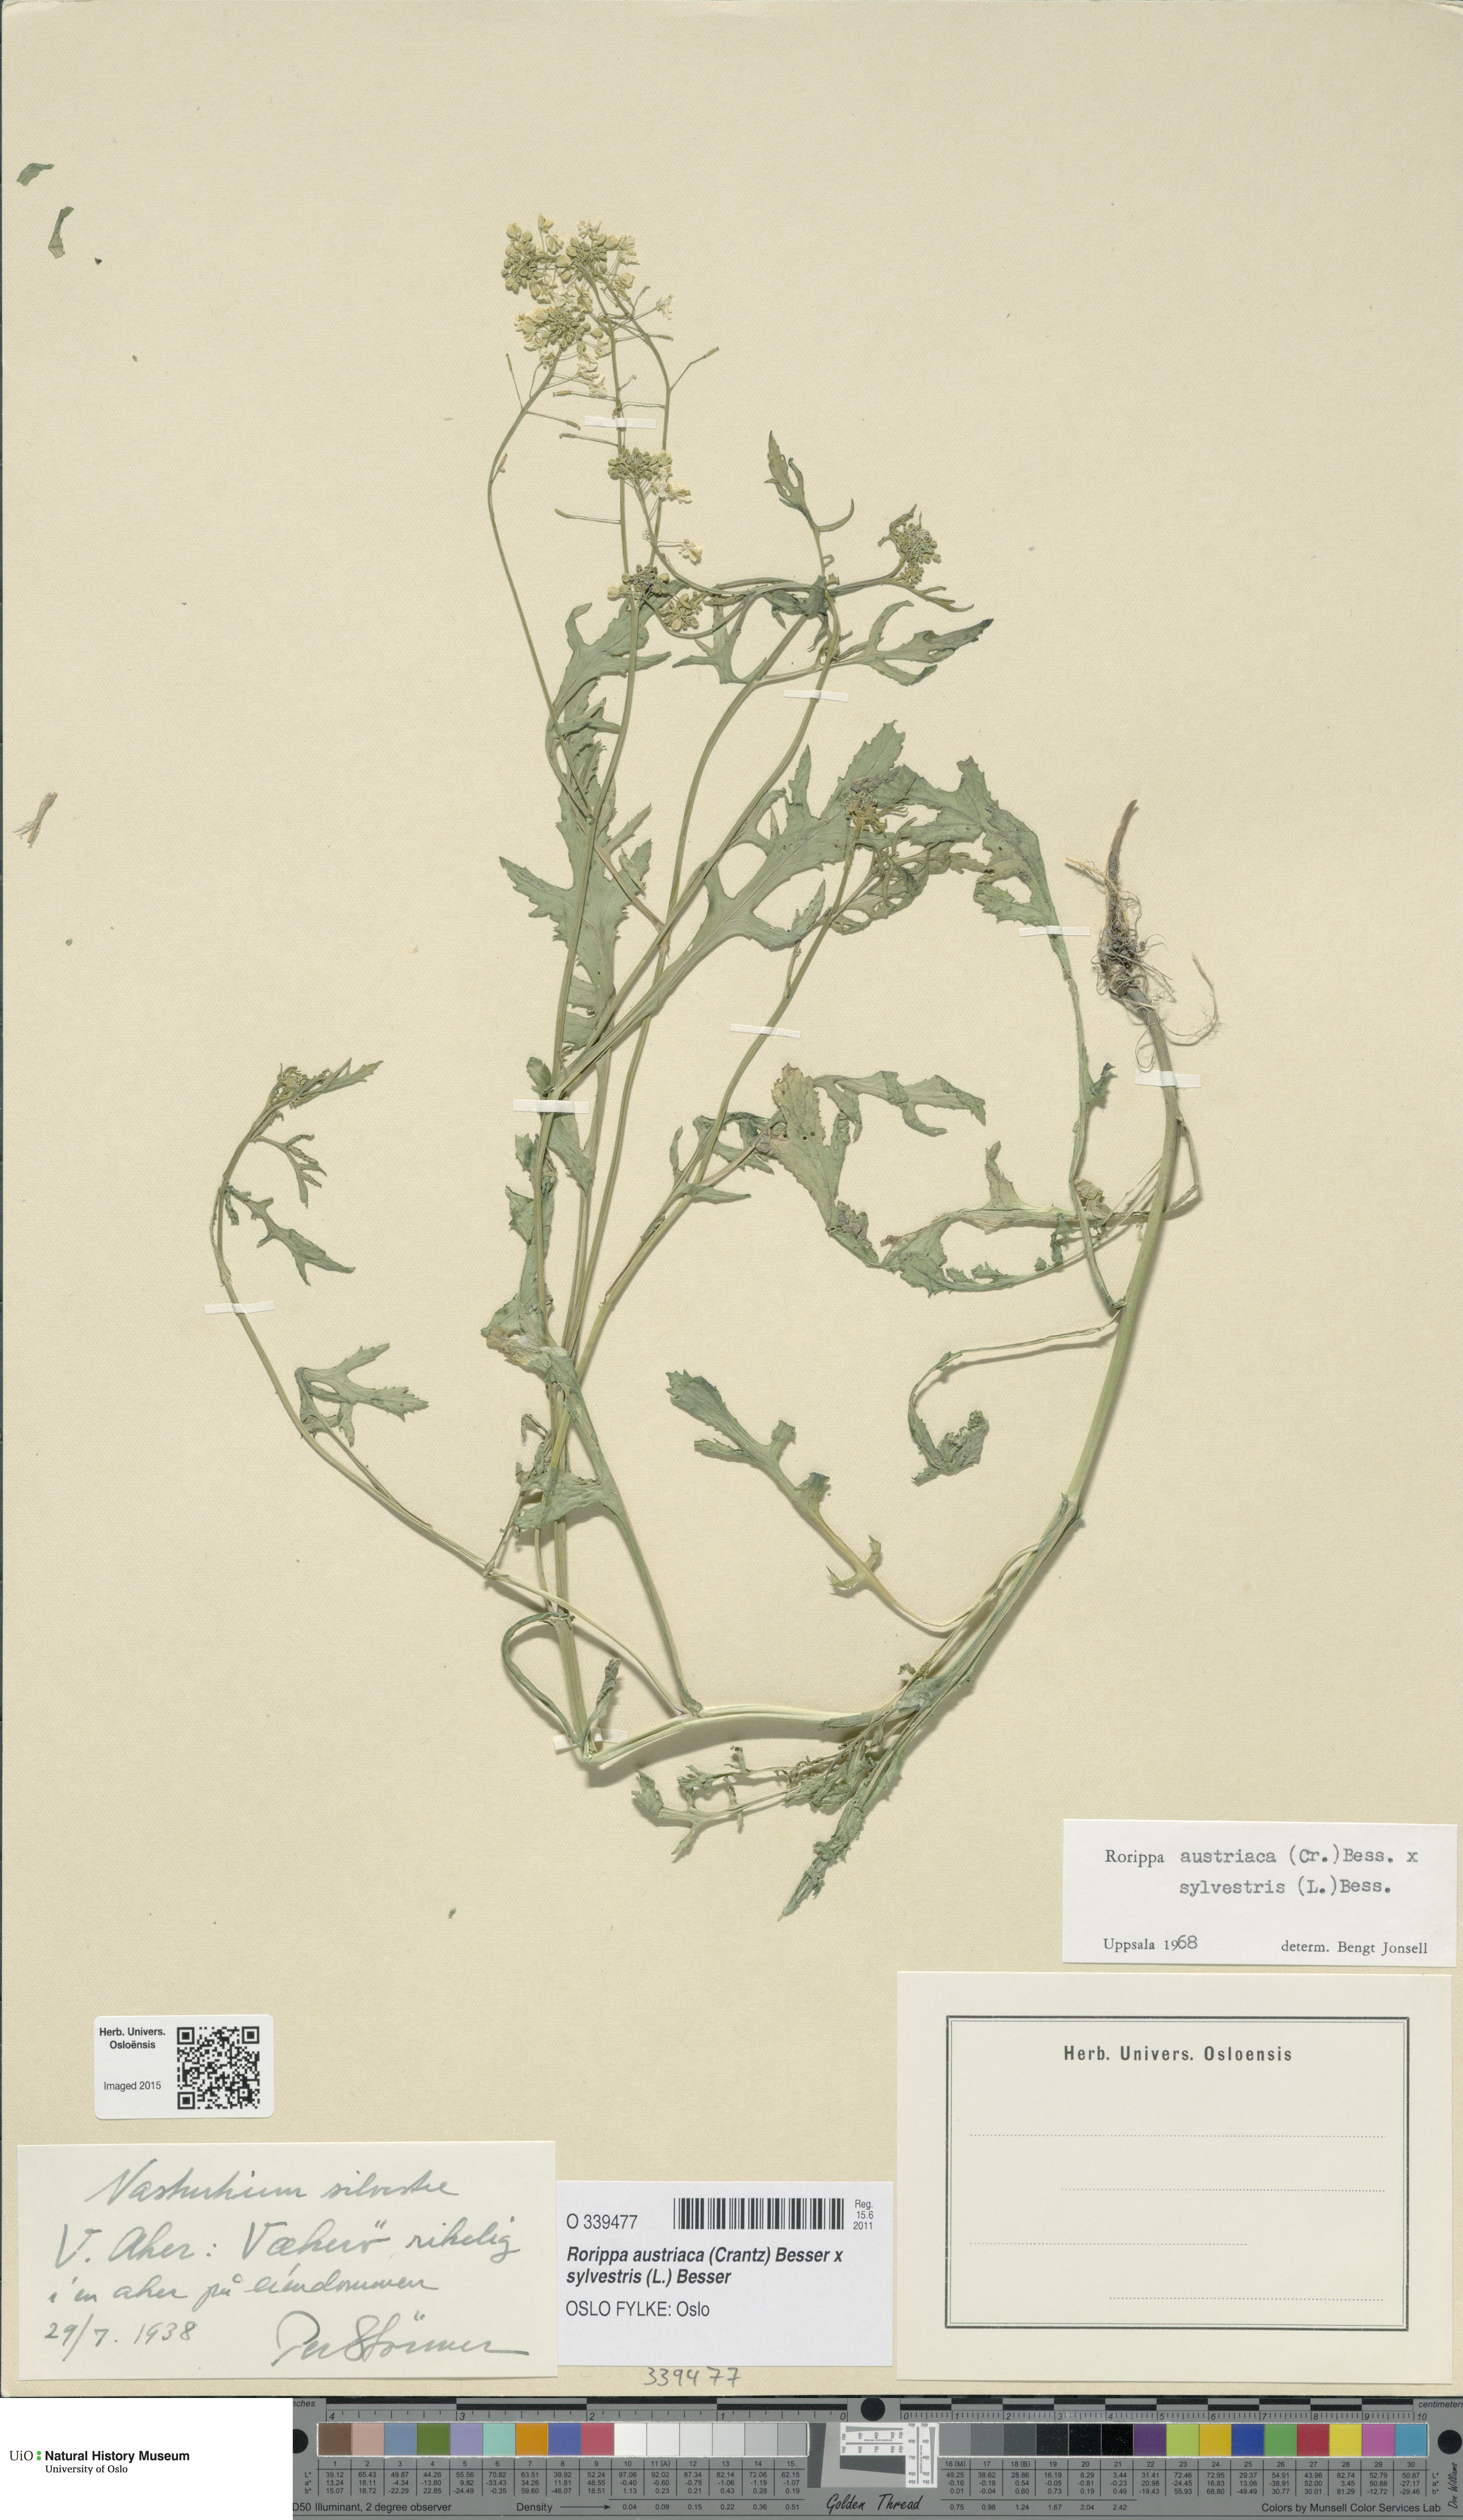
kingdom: Plantae
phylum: Tracheophyta
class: Magnoliopsida
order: Brassicales
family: Brassicaceae
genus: Rorippa
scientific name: Rorippa
